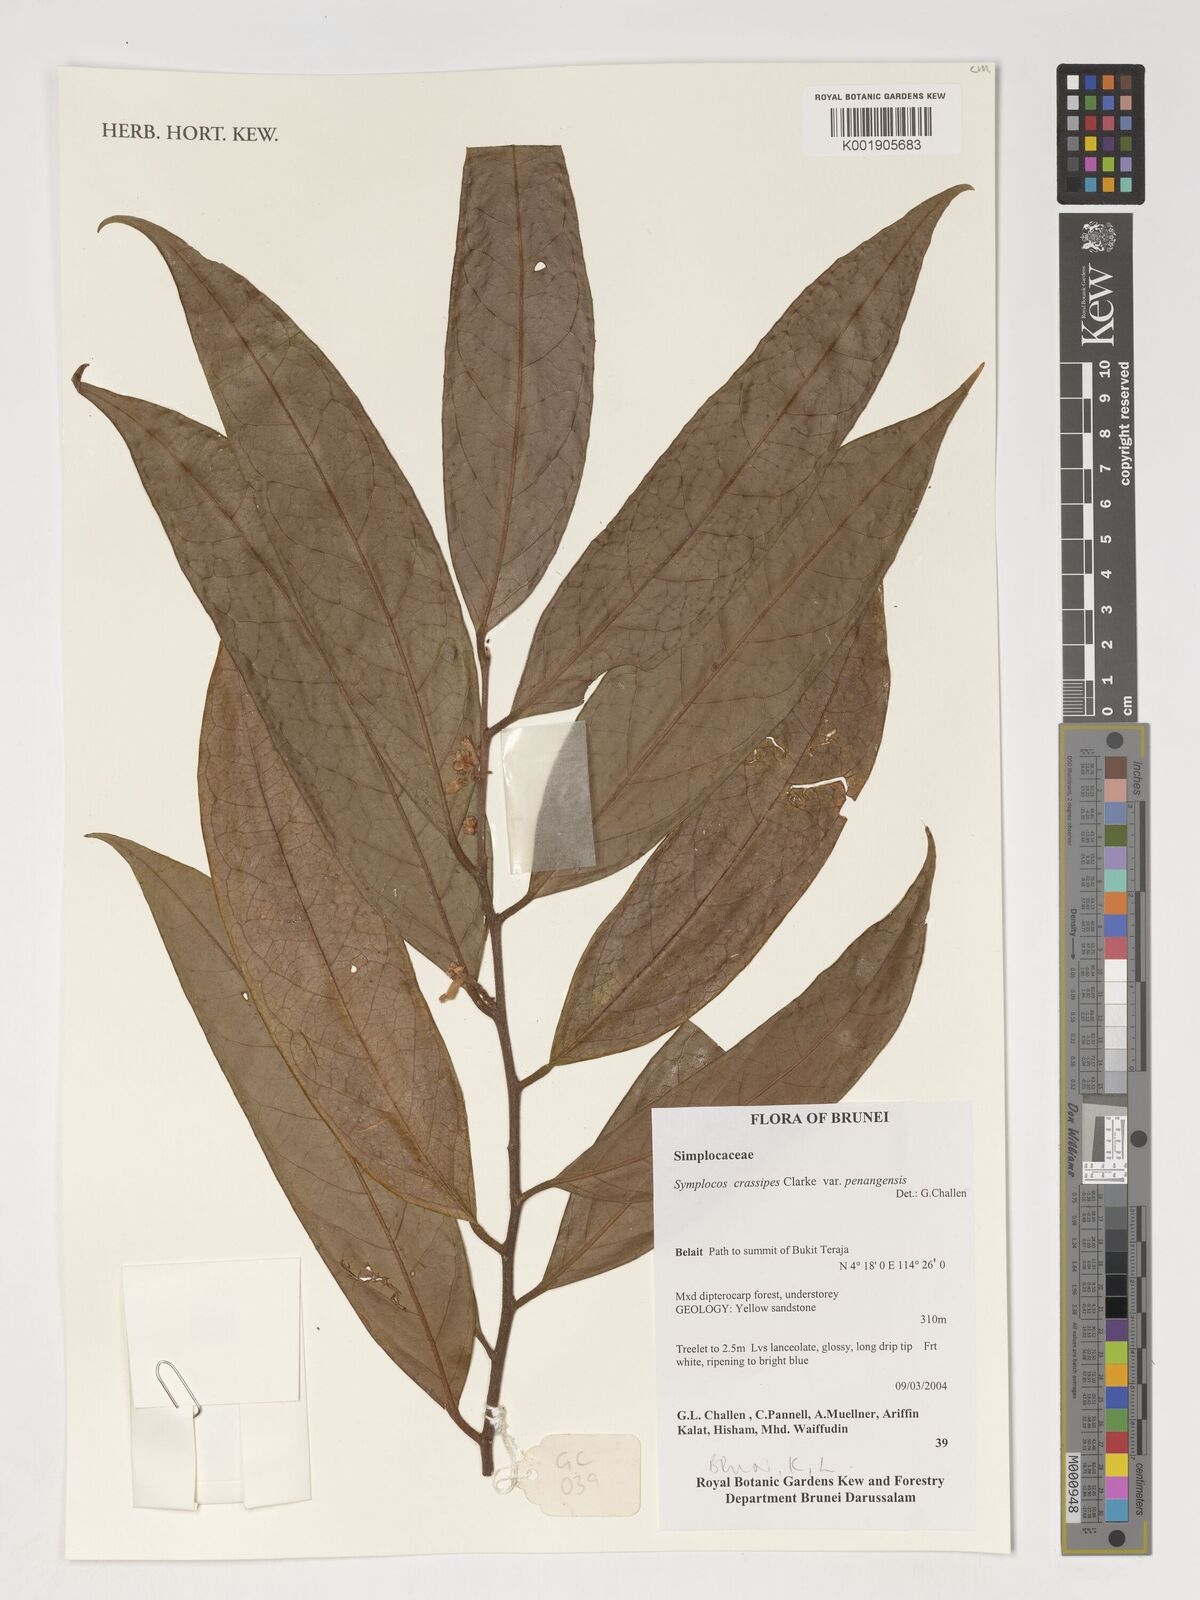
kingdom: Plantae
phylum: Tracheophyta
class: Magnoliopsida
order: Ericales
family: Symplocaceae
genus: Symplocos
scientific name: Symplocos crassipes
